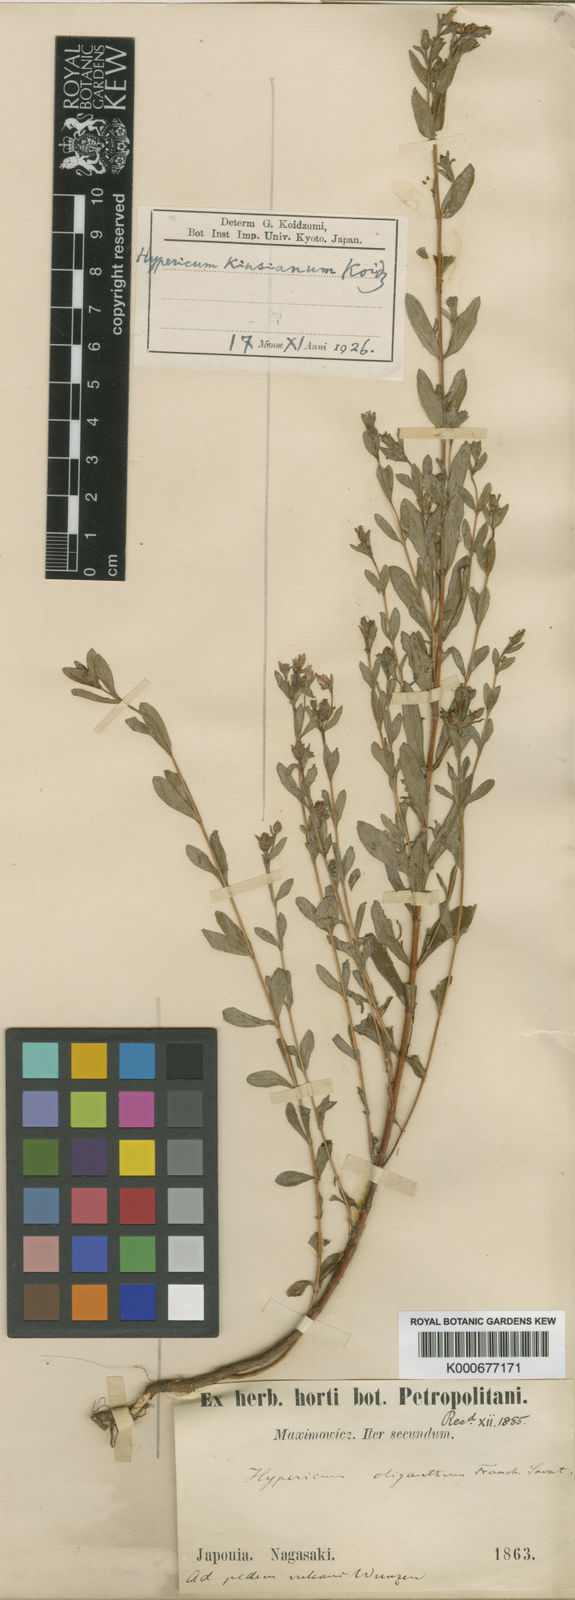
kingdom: Plantae
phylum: Tracheophyta
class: Magnoliopsida
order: Malpighiales
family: Hypericaceae
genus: Hypericum
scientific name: Hypericum pseudopetiolatum
